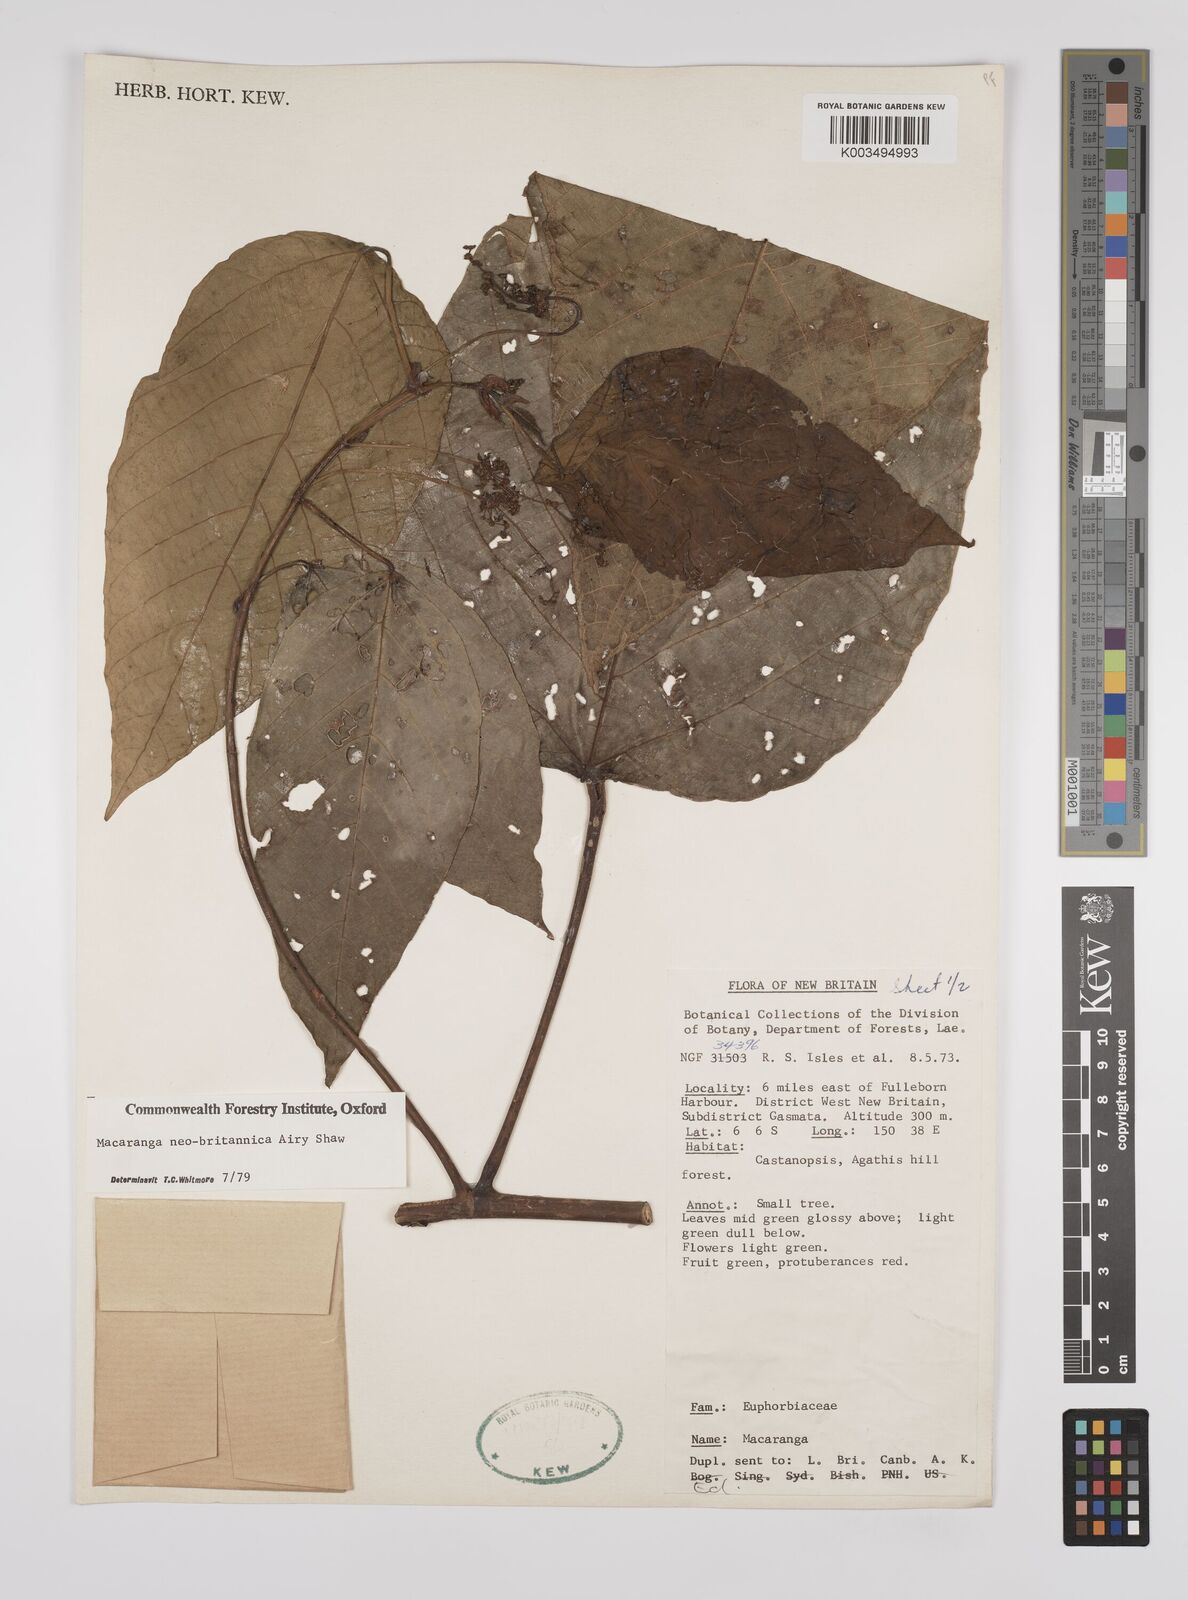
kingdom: Plantae
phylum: Tracheophyta
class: Magnoliopsida
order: Malpighiales
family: Euphorbiaceae
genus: Macaranga
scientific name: Macaranga neobritannica
